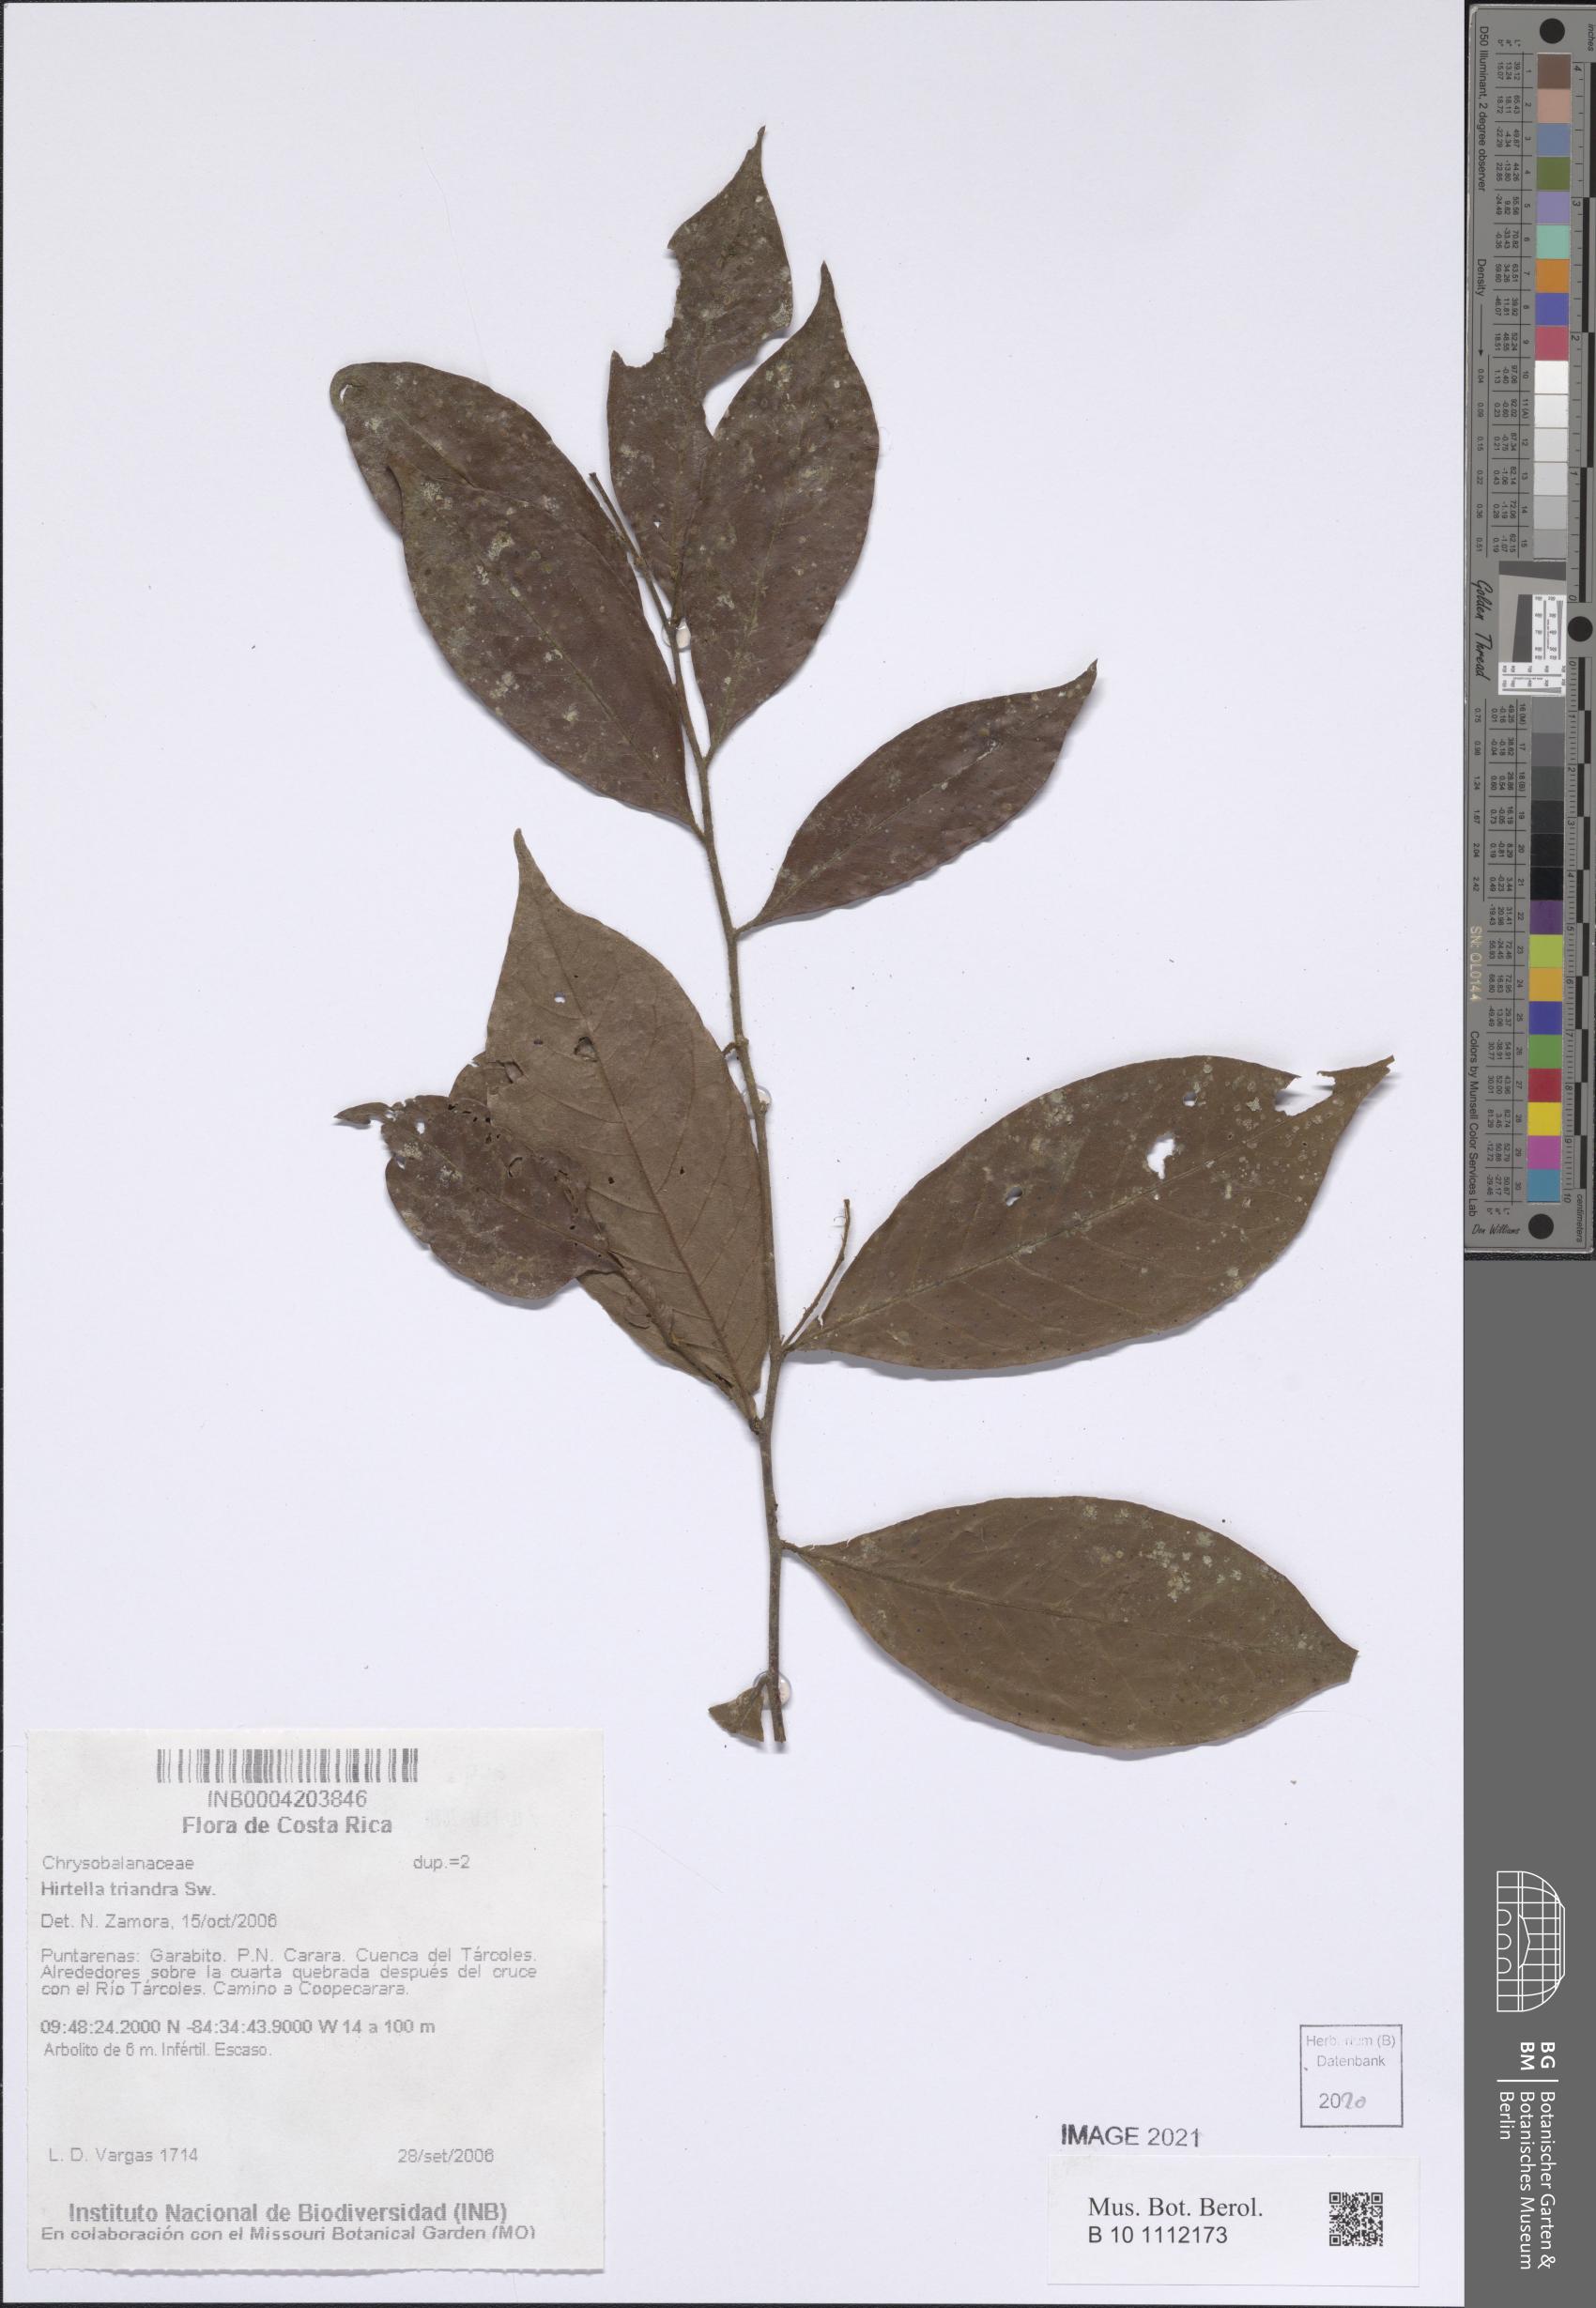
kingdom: Plantae
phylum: Tracheophyta
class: Magnoliopsida
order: Malpighiales
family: Chrysobalanaceae
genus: Hirtella
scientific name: Hirtella triandra
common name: Hairy plum
